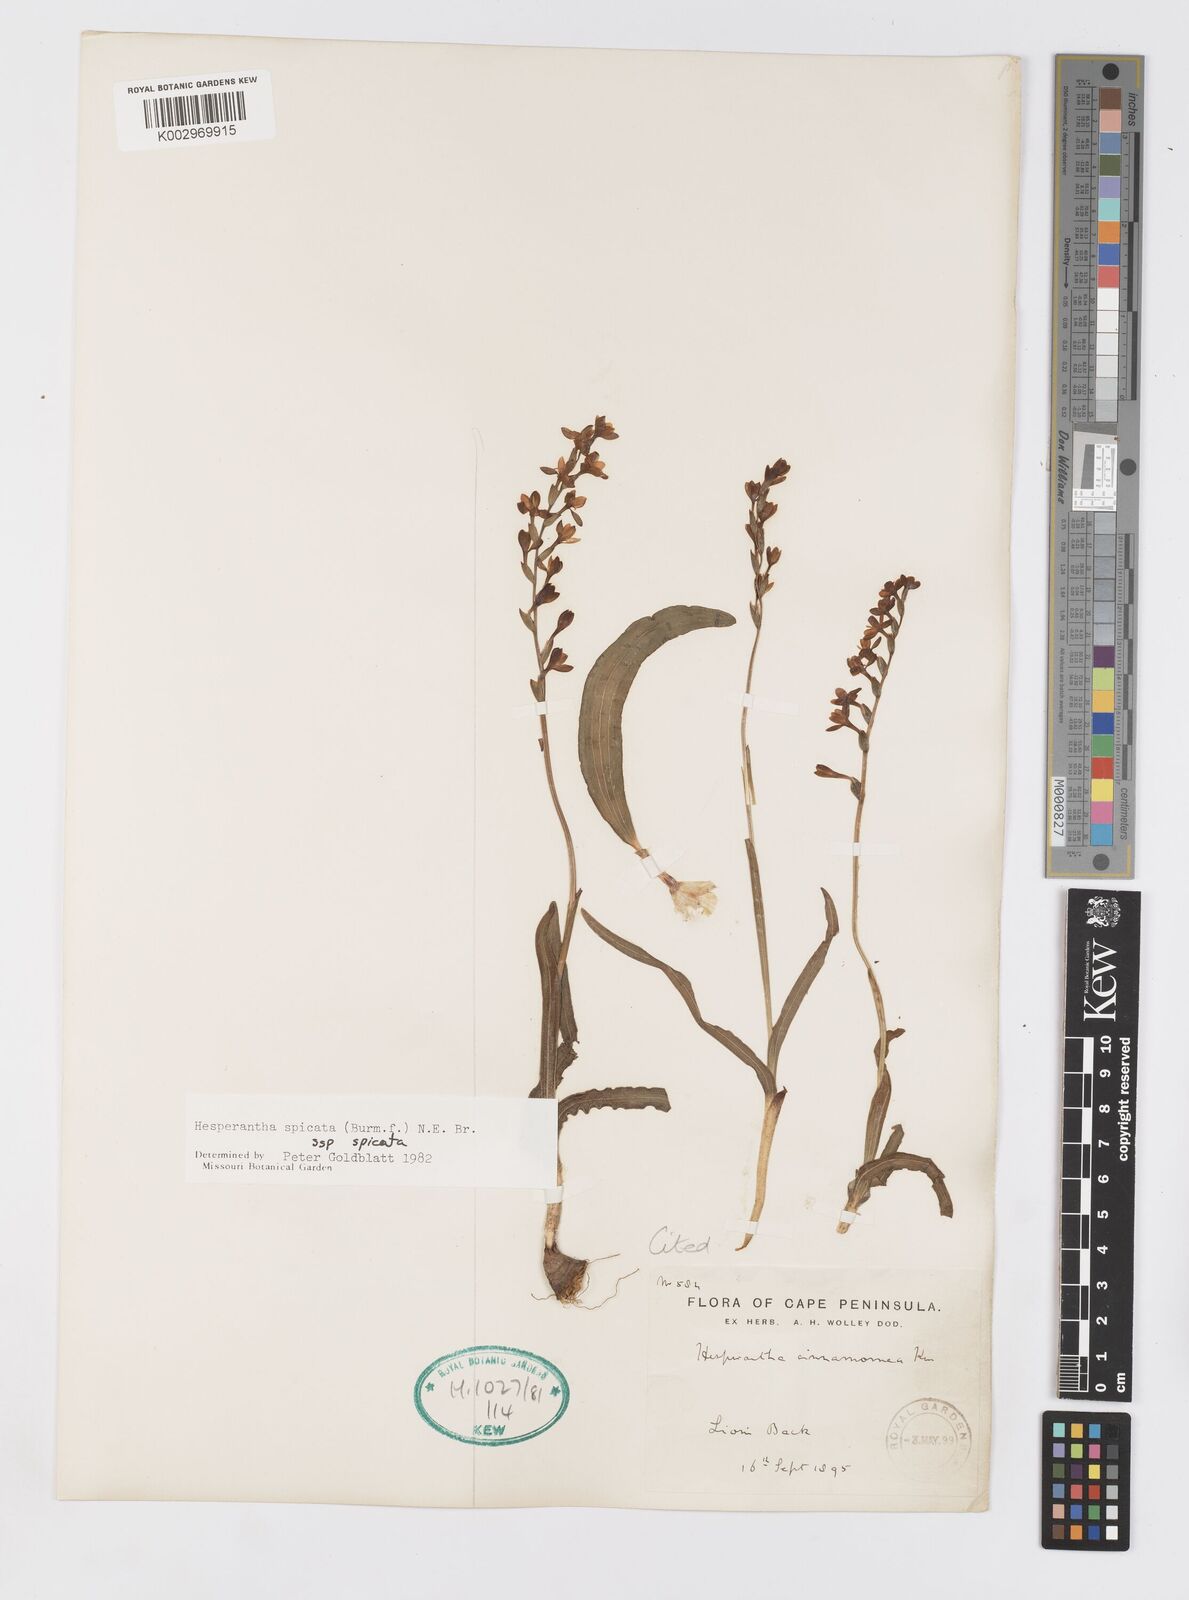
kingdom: Plantae
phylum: Tracheophyta
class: Liliopsida
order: Asparagales
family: Iridaceae
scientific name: Iridaceae
